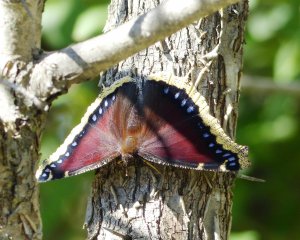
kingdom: Animalia
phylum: Arthropoda
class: Insecta
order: Lepidoptera
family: Nymphalidae
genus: Nymphalis
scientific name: Nymphalis antiopa
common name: Mourning Cloak
